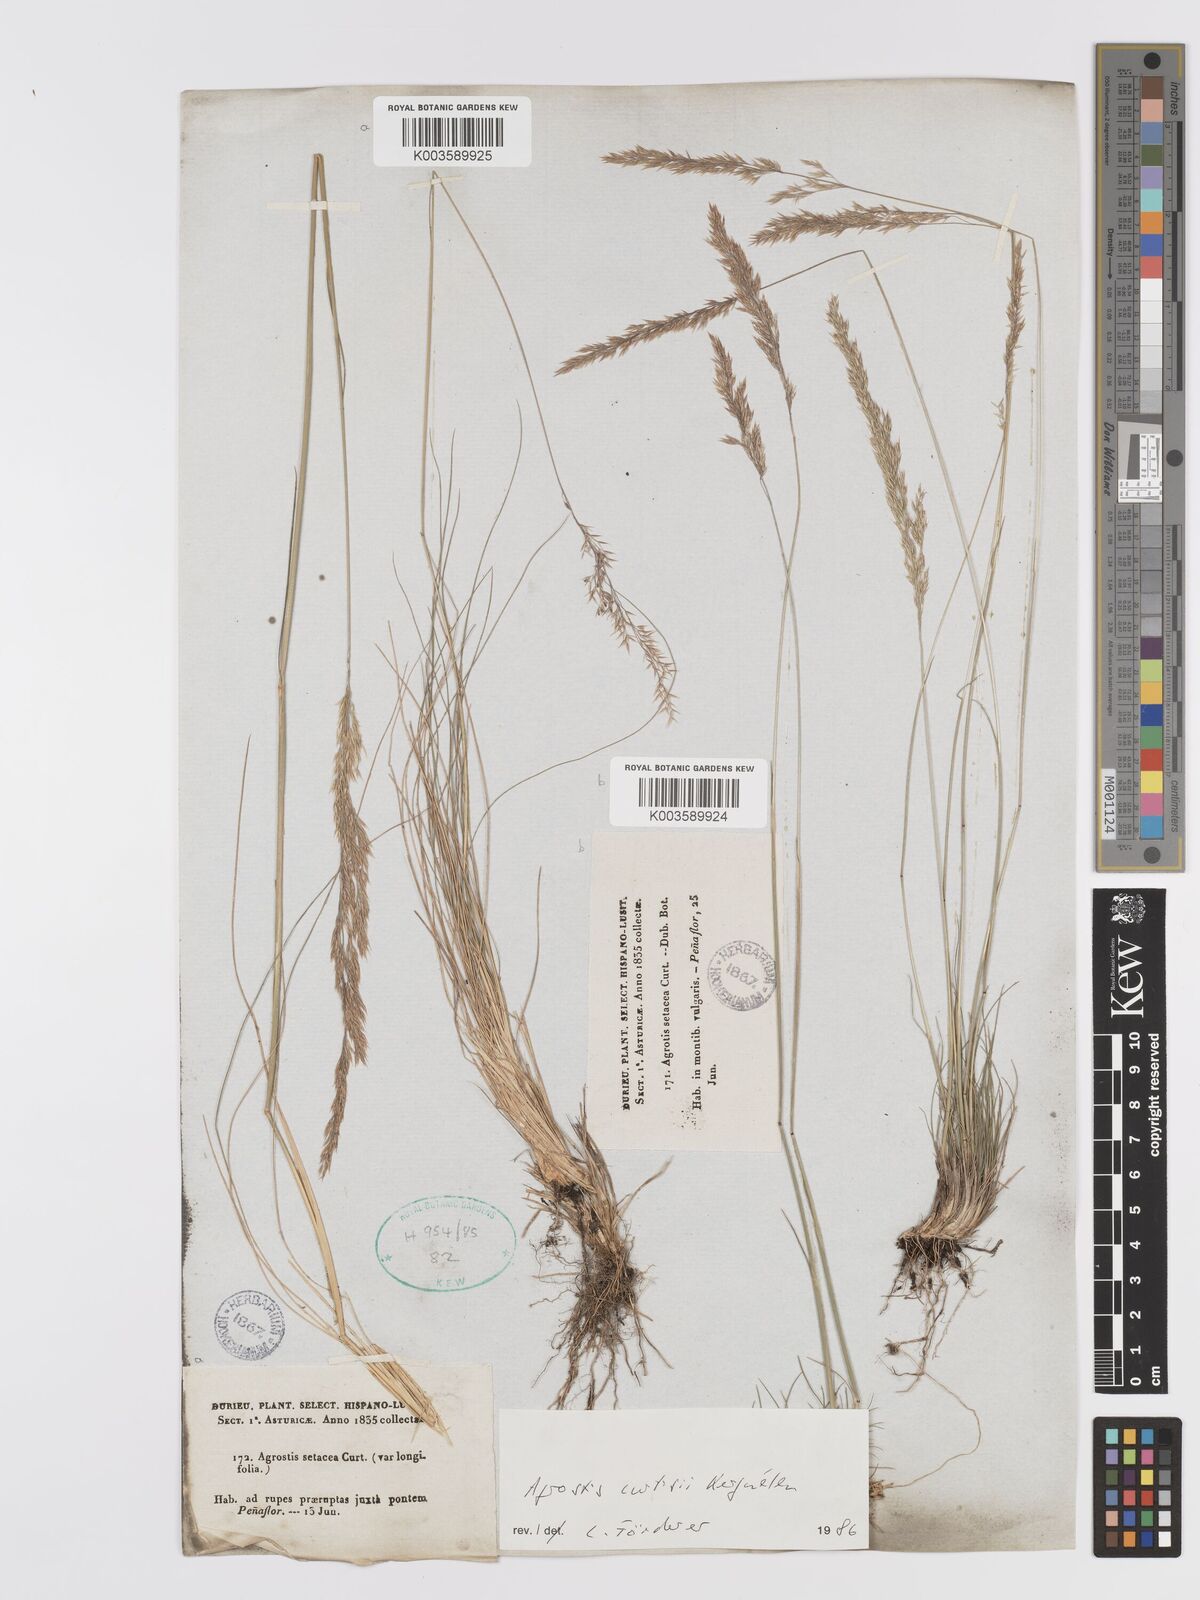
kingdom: Plantae
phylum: Tracheophyta
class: Liliopsida
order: Poales
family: Poaceae
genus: Alpagrostis
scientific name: Alpagrostis setacea
